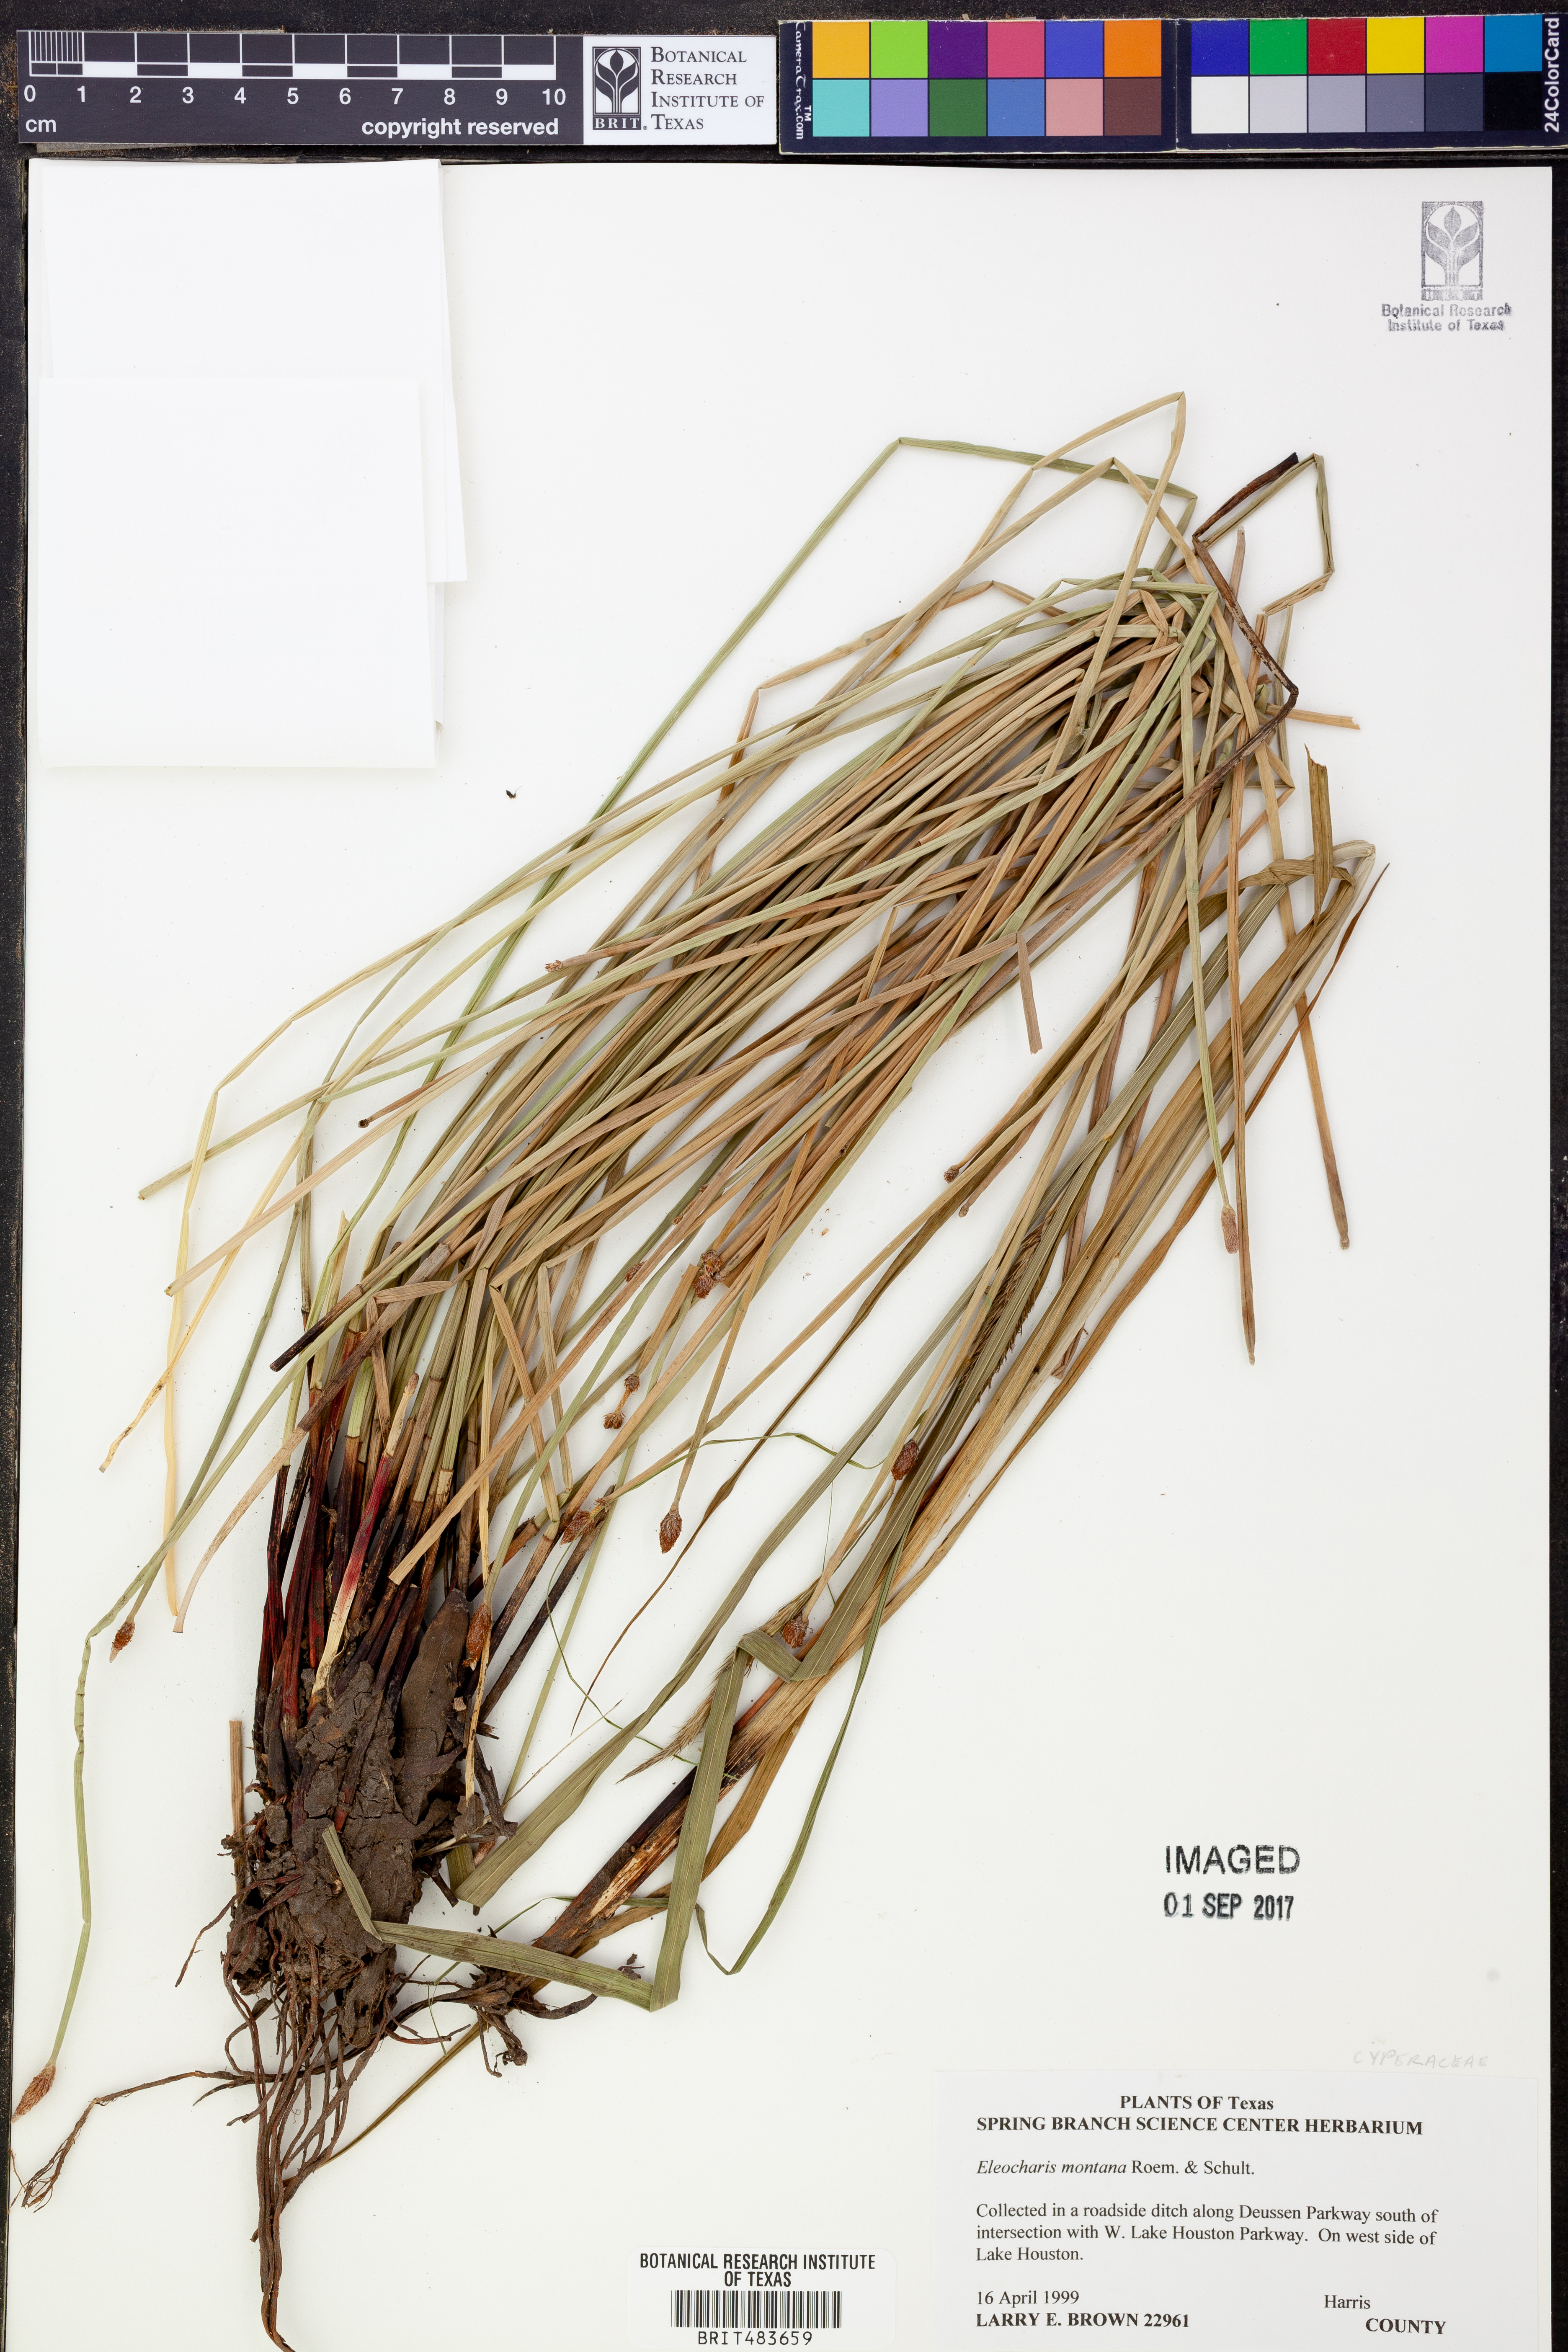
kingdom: Plantae
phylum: Tracheophyta
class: Liliopsida
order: Poales
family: Cyperaceae
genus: Eleocharis
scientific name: Eleocharis montana
